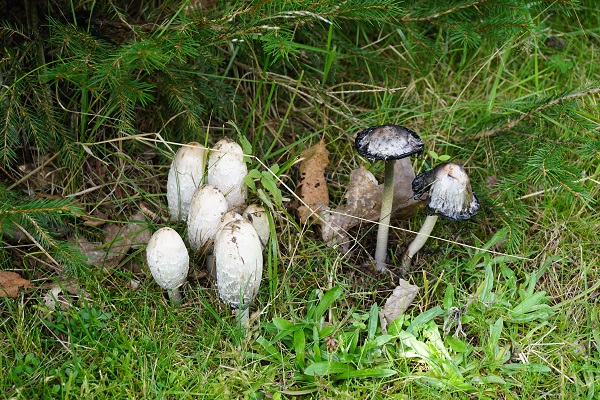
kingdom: Fungi
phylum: Basidiomycota
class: Agaricomycetes
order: Agaricales
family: Agaricaceae
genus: Coprinus
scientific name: Coprinus comatus
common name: stor parykhat
